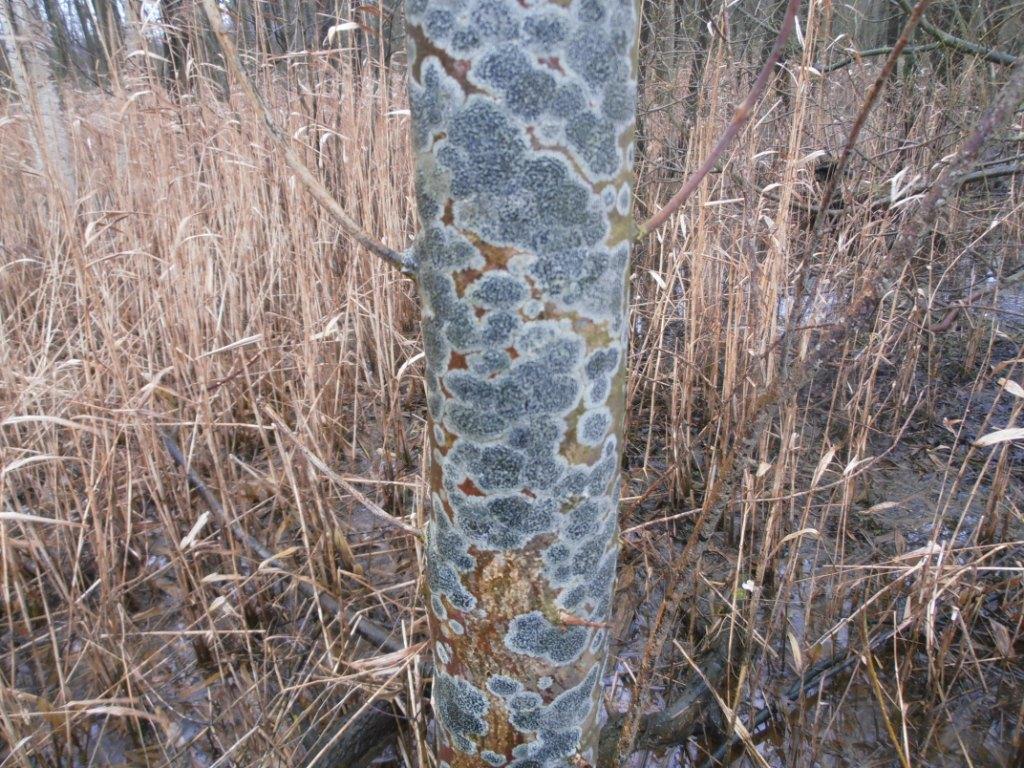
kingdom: Fungi
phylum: Ascomycota
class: Lecanoromycetes
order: Lecanorales
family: Lecanoraceae
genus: Lecidella
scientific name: Lecidella elaeochroma
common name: grågrøn skivelav
